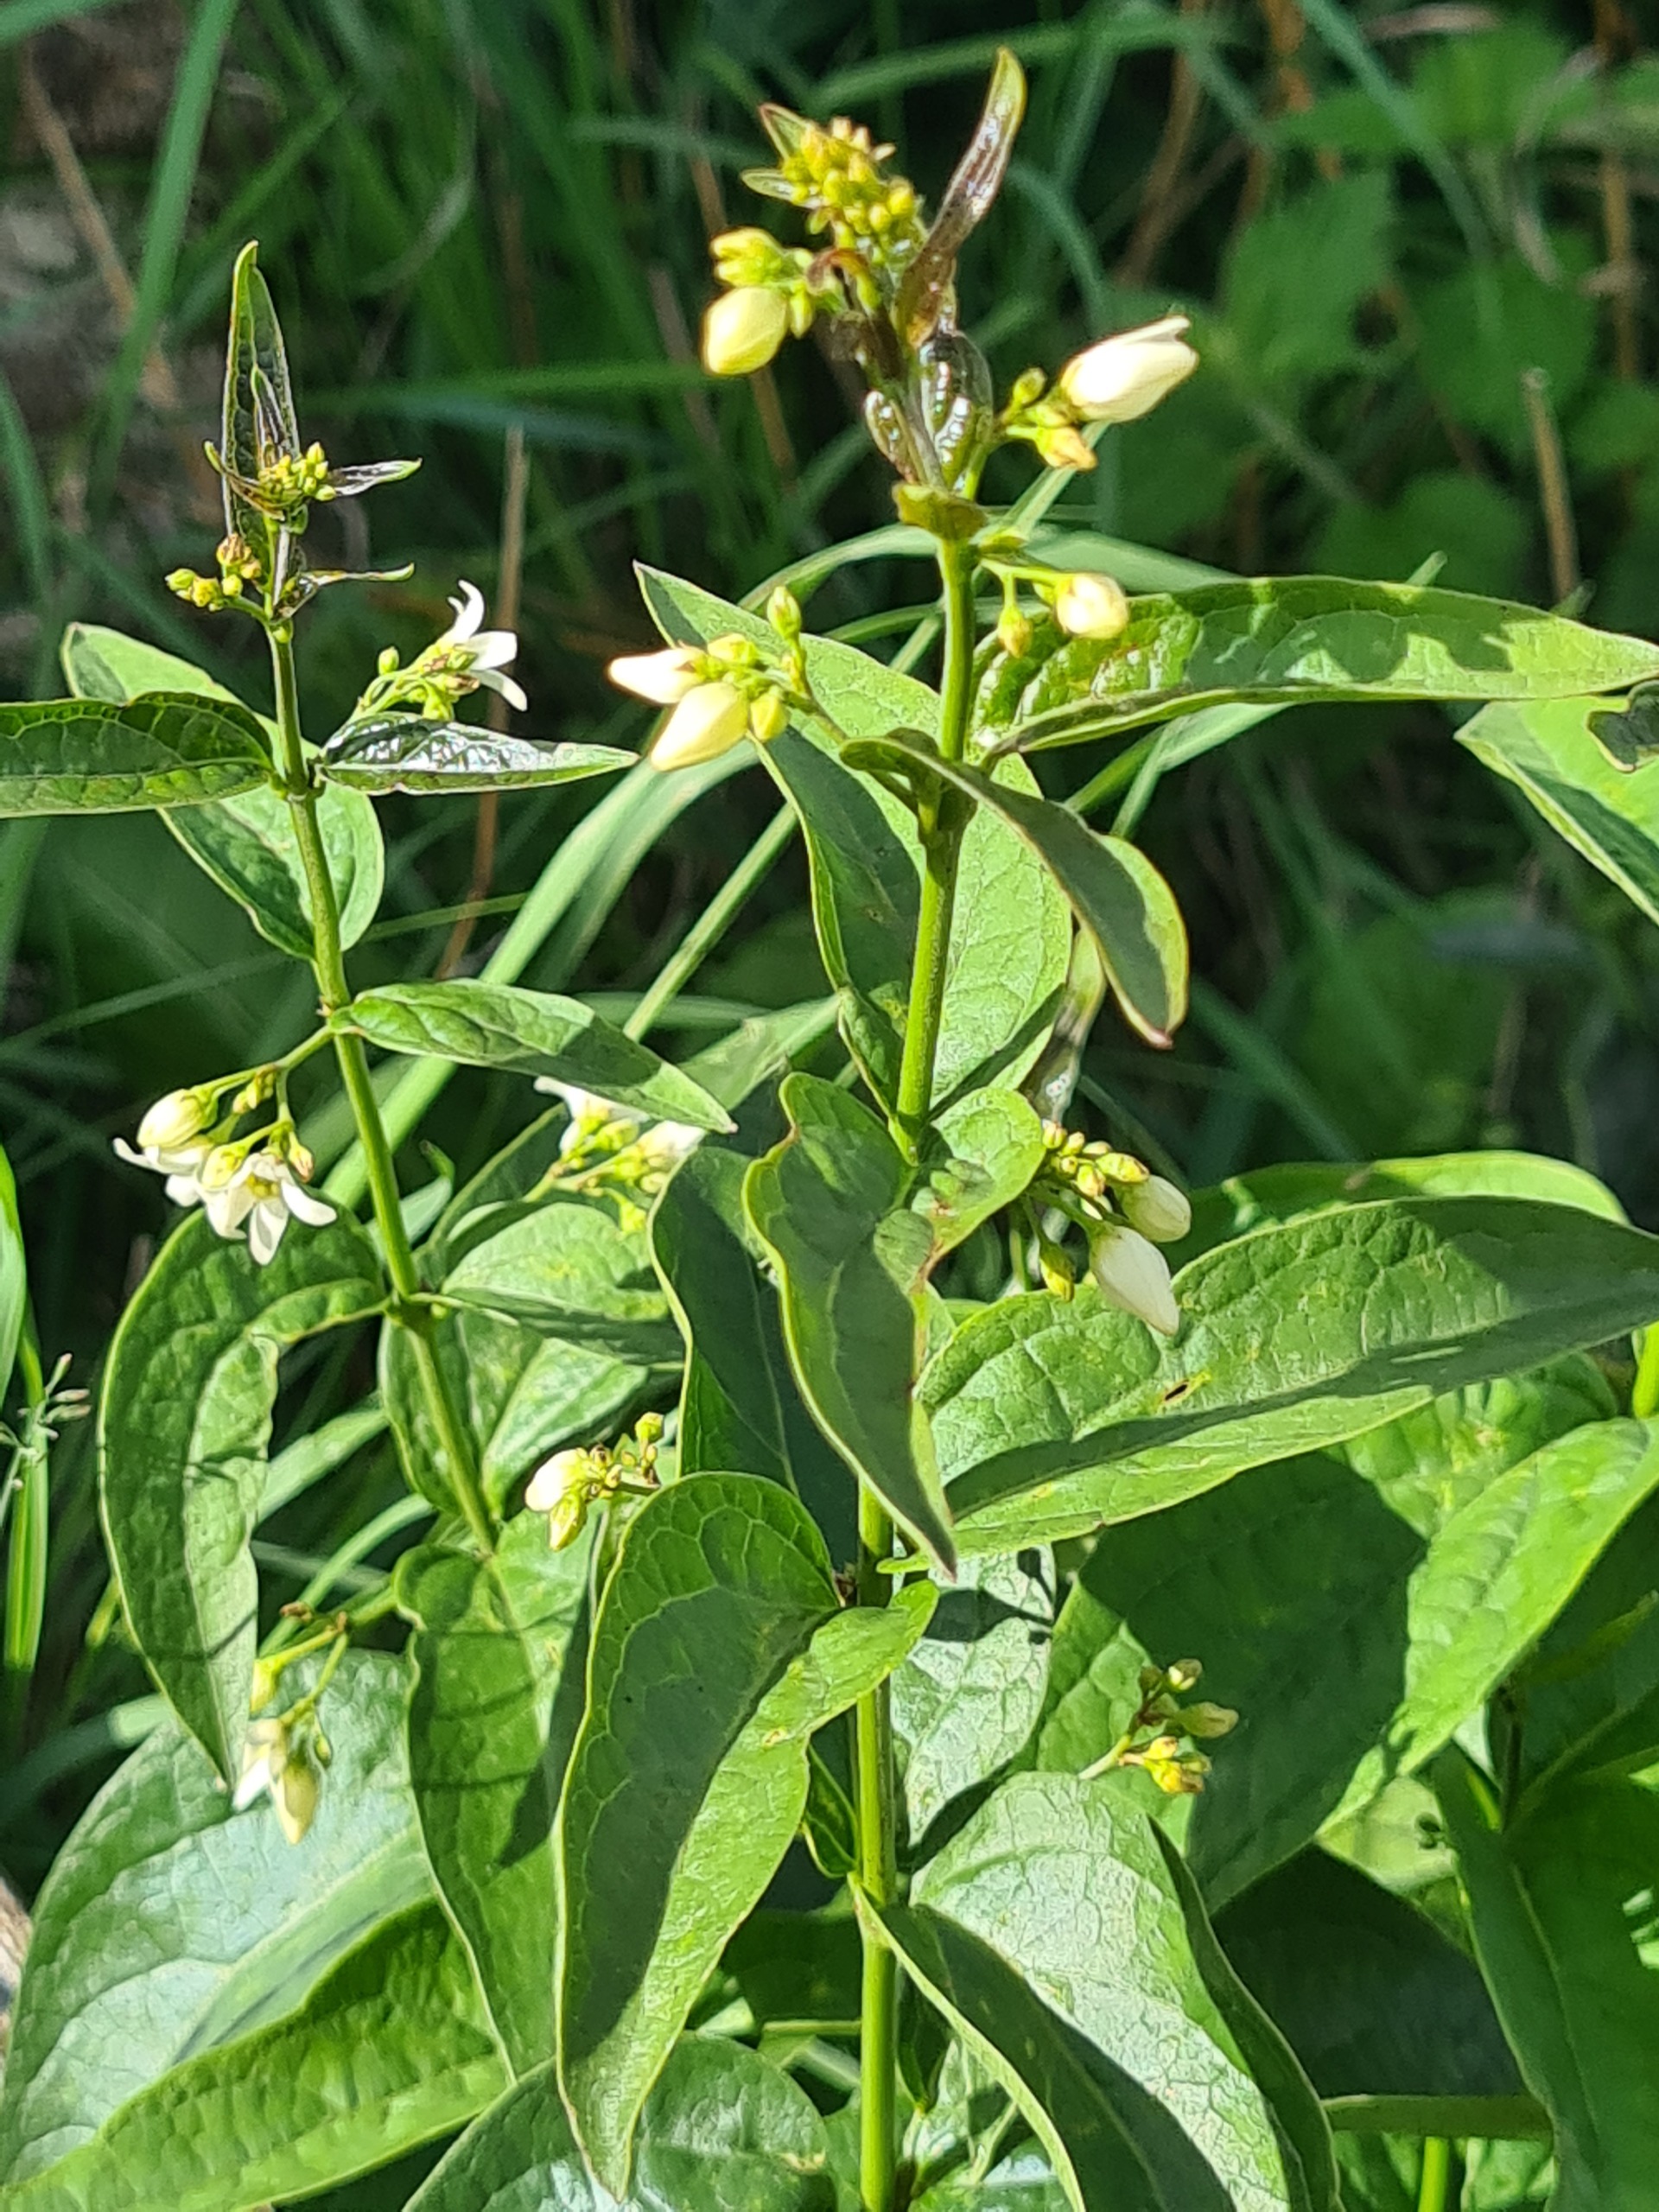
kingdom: Plantae
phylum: Tracheophyta
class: Magnoliopsida
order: Gentianales
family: Apocynaceae
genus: Vincetoxicum
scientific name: Vincetoxicum hirundinaria
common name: Svalerod
